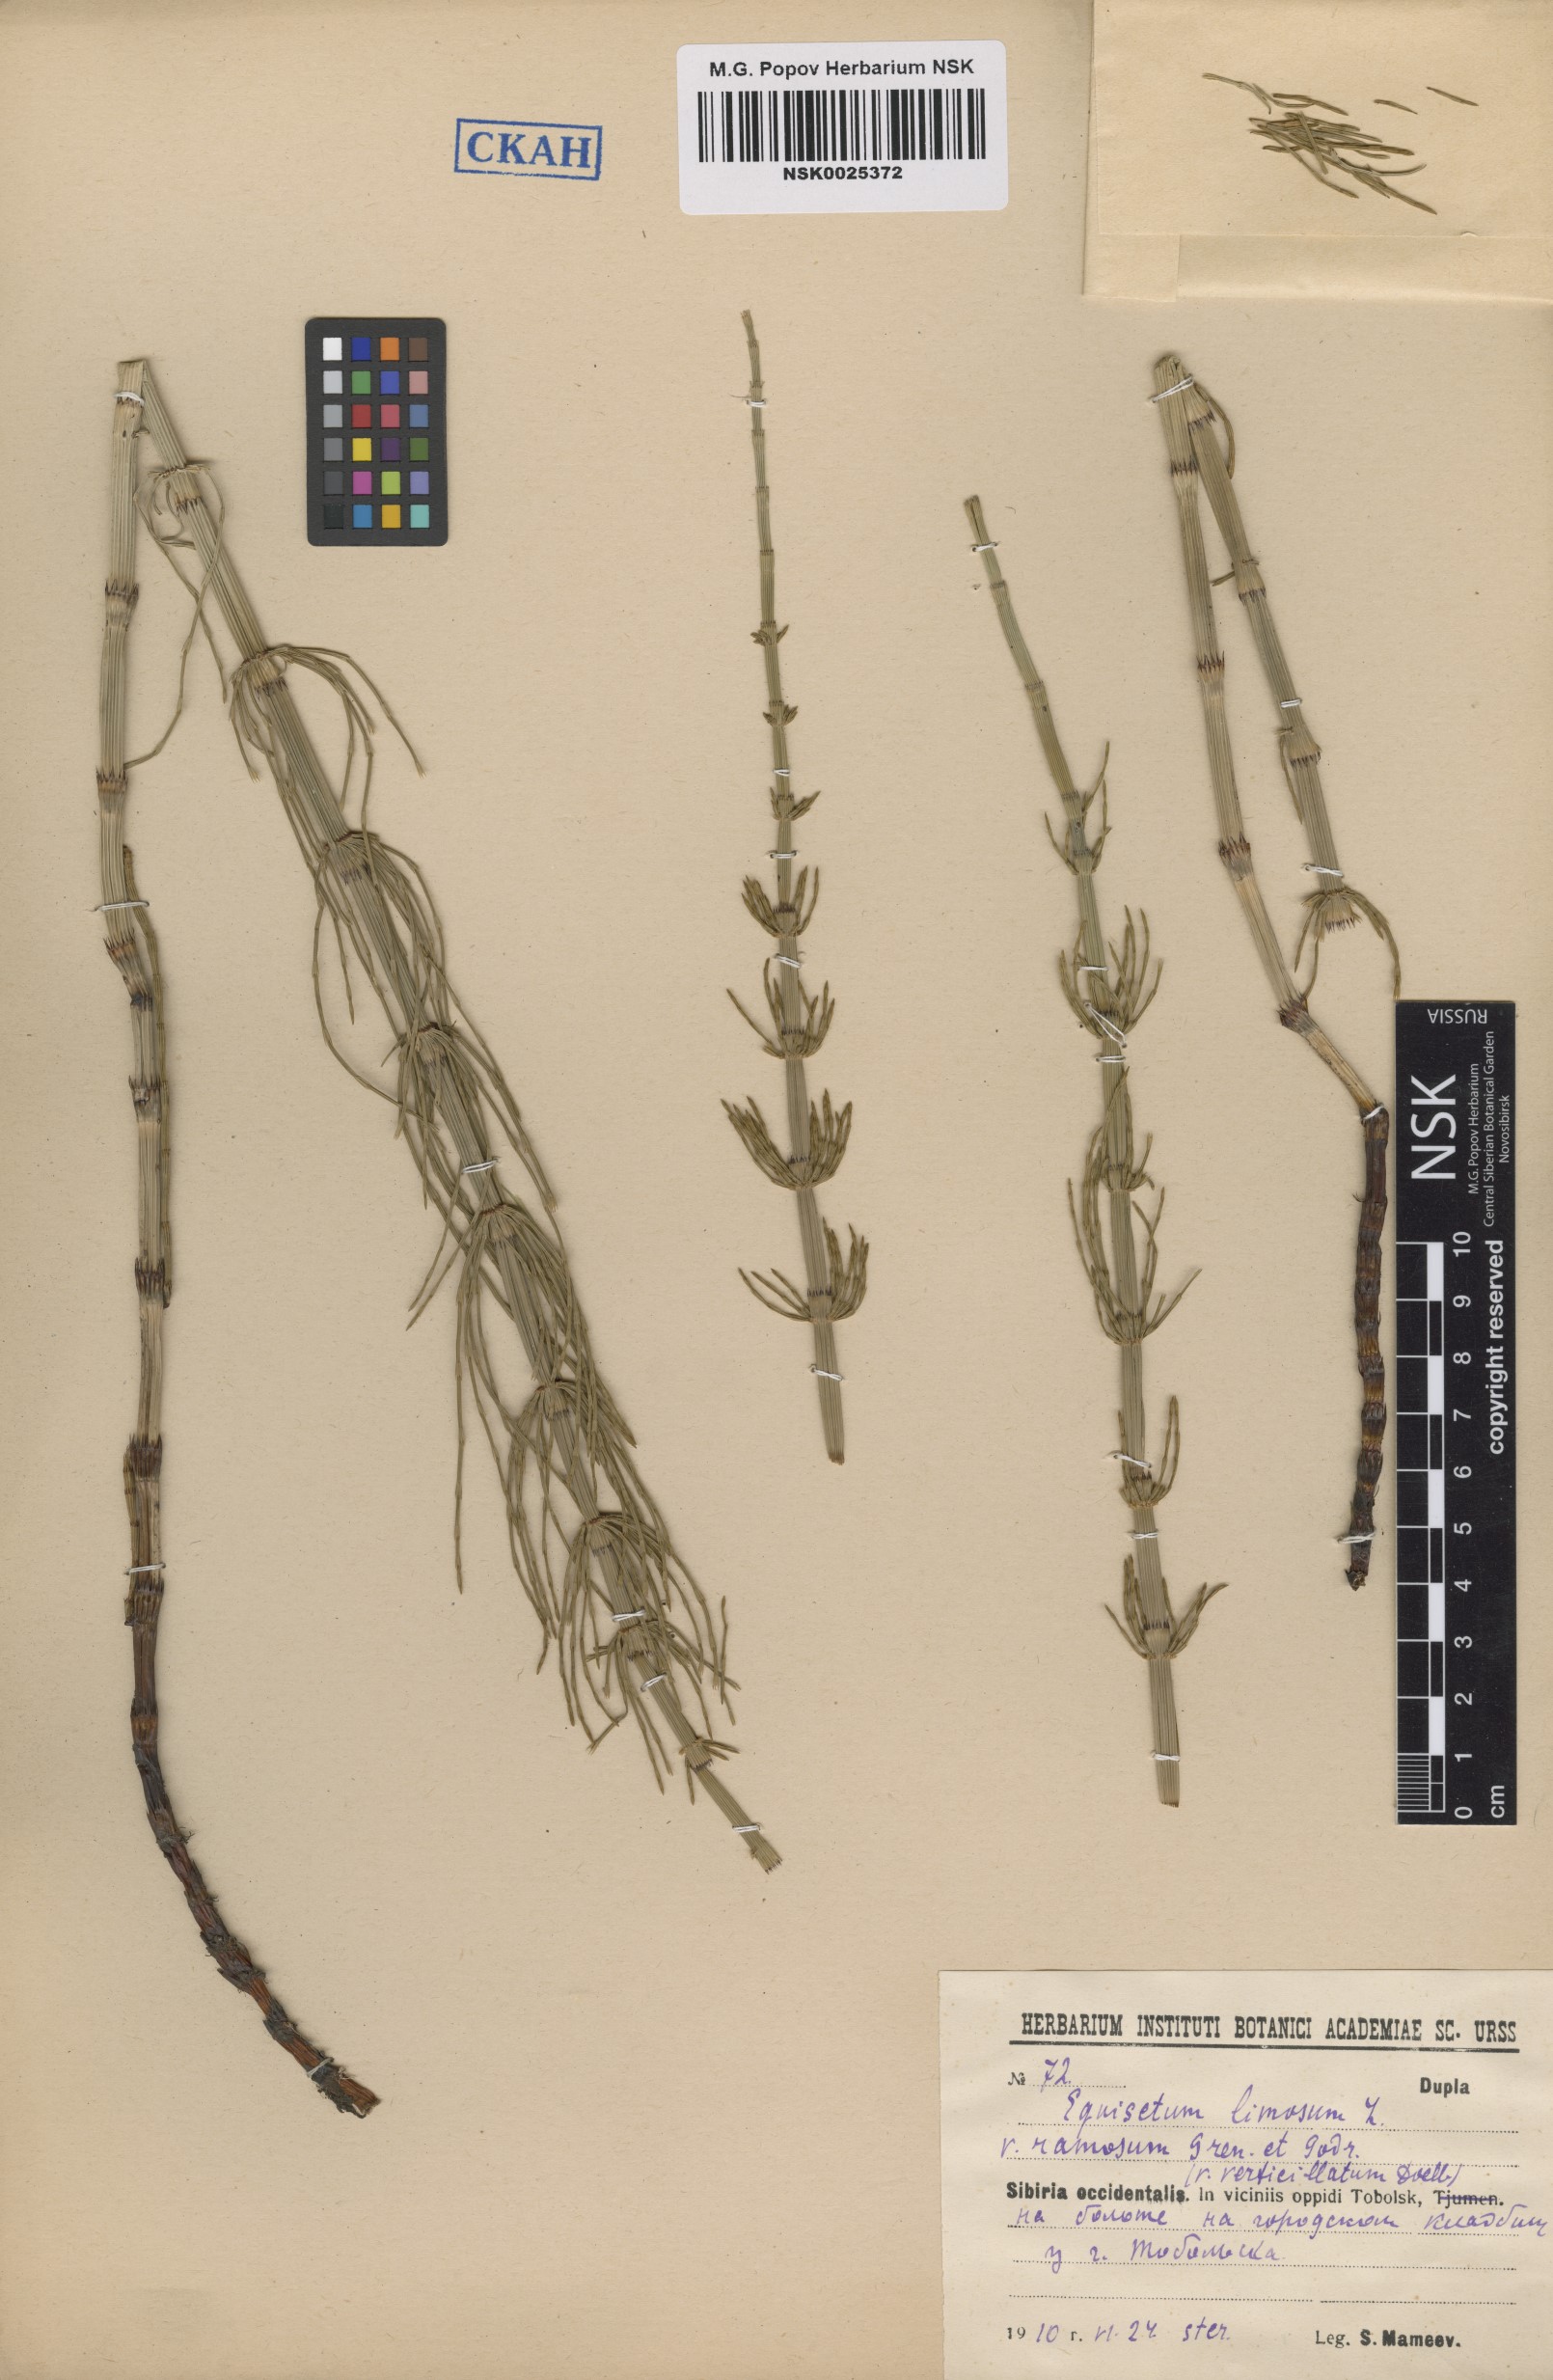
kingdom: Plantae
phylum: Tracheophyta
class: Polypodiopsida
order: Equisetales
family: Equisetaceae
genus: Equisetum
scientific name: Equisetum fluviatile
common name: Water horsetail
